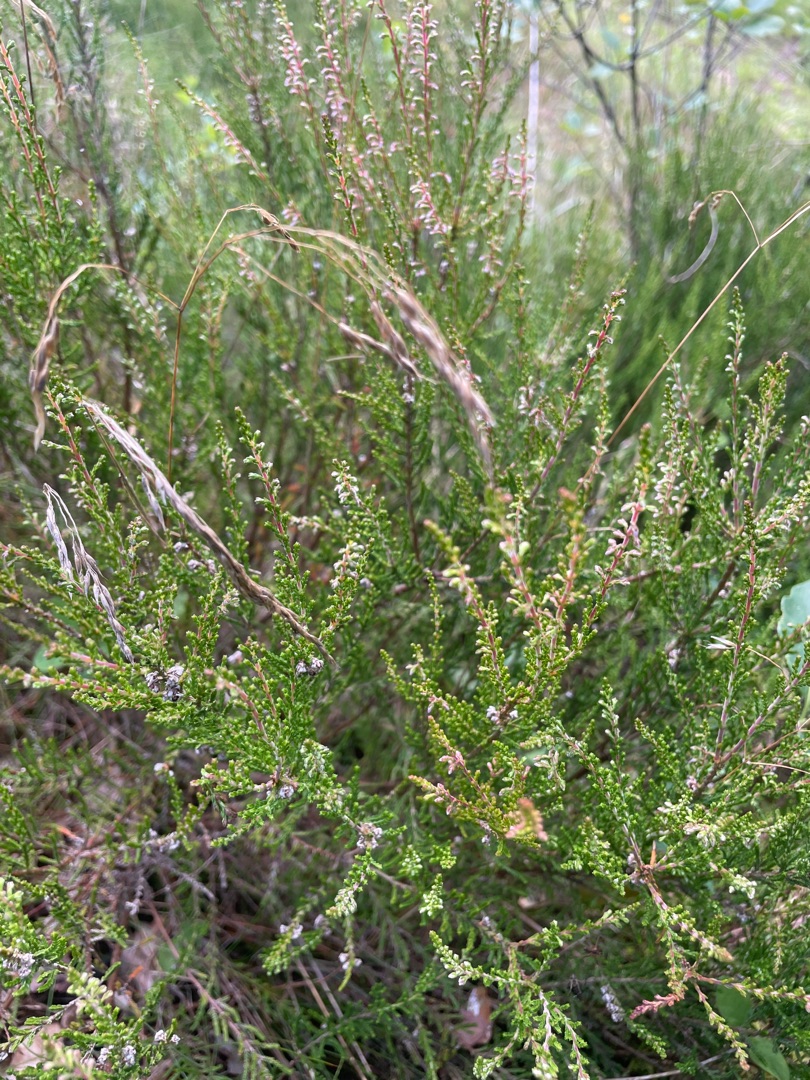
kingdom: Plantae
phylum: Tracheophyta
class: Magnoliopsida
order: Ericales
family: Ericaceae
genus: Calluna
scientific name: Calluna vulgaris
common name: Hedelyng
